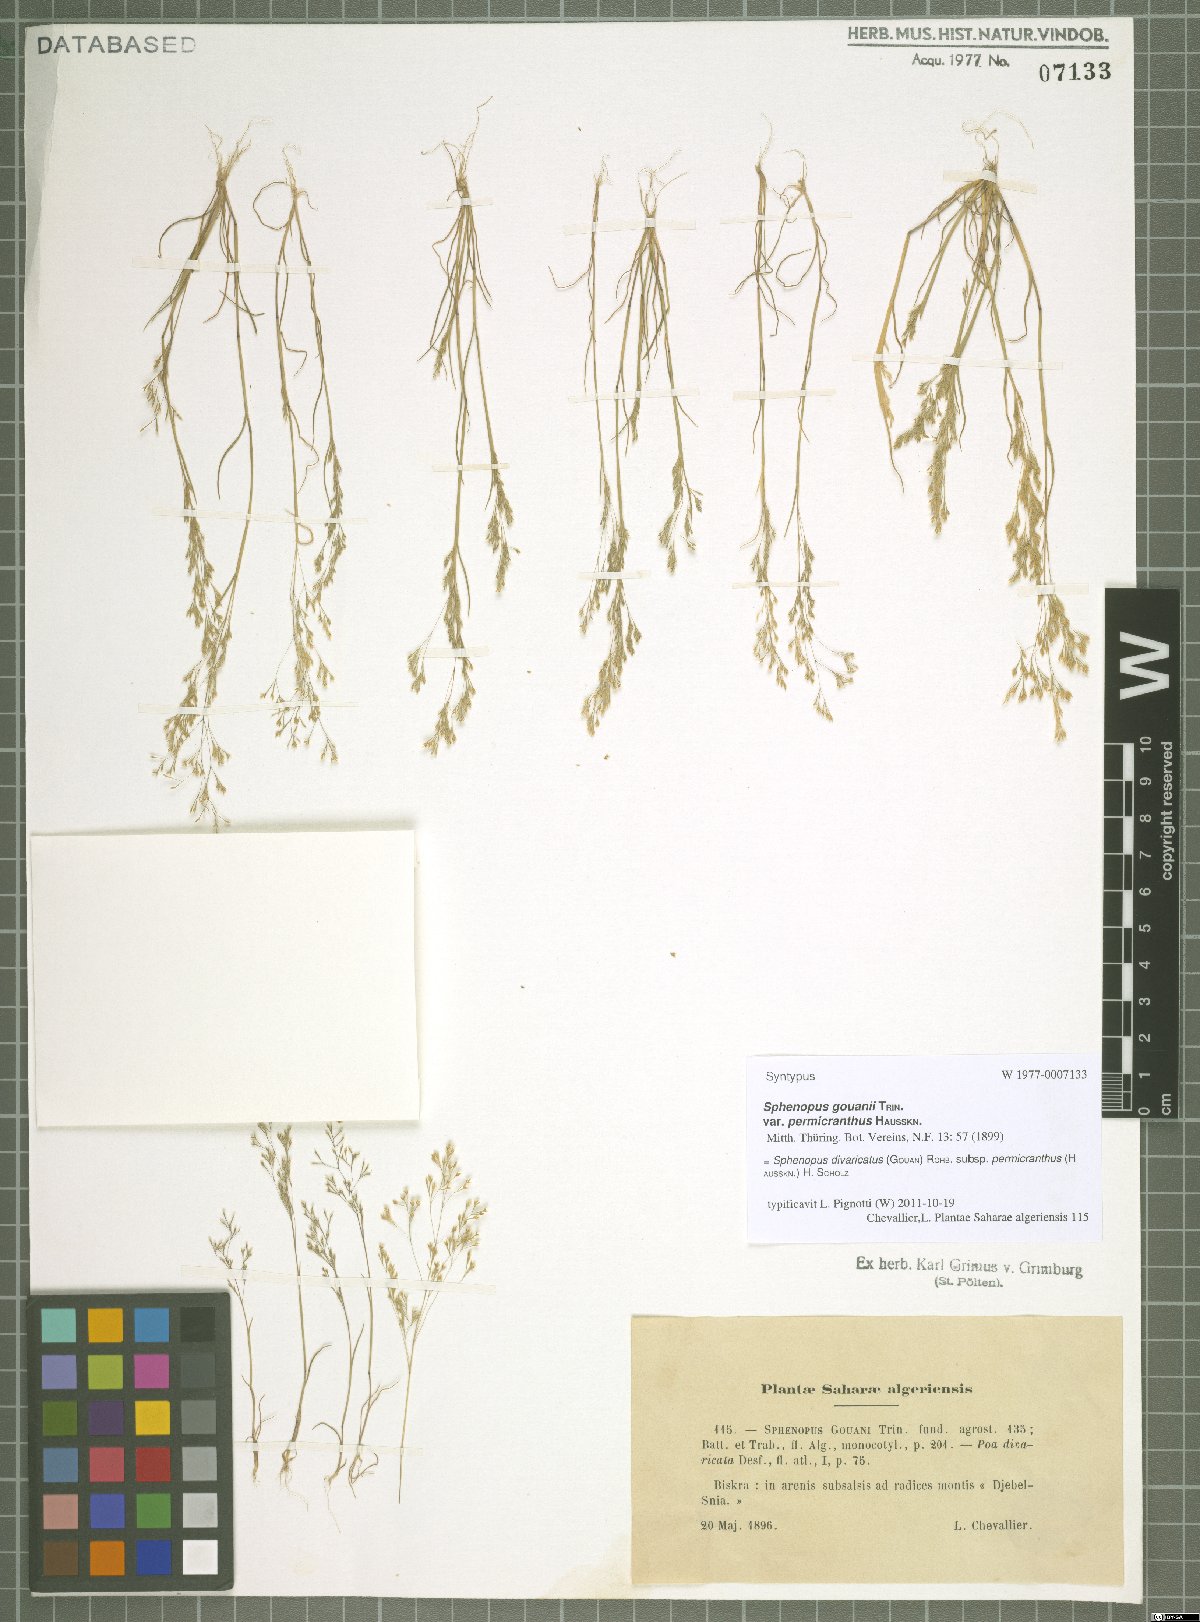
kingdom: Plantae
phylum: Tracheophyta
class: Liliopsida
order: Poales
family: Poaceae
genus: Sphenopus
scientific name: Sphenopus divaricatus
